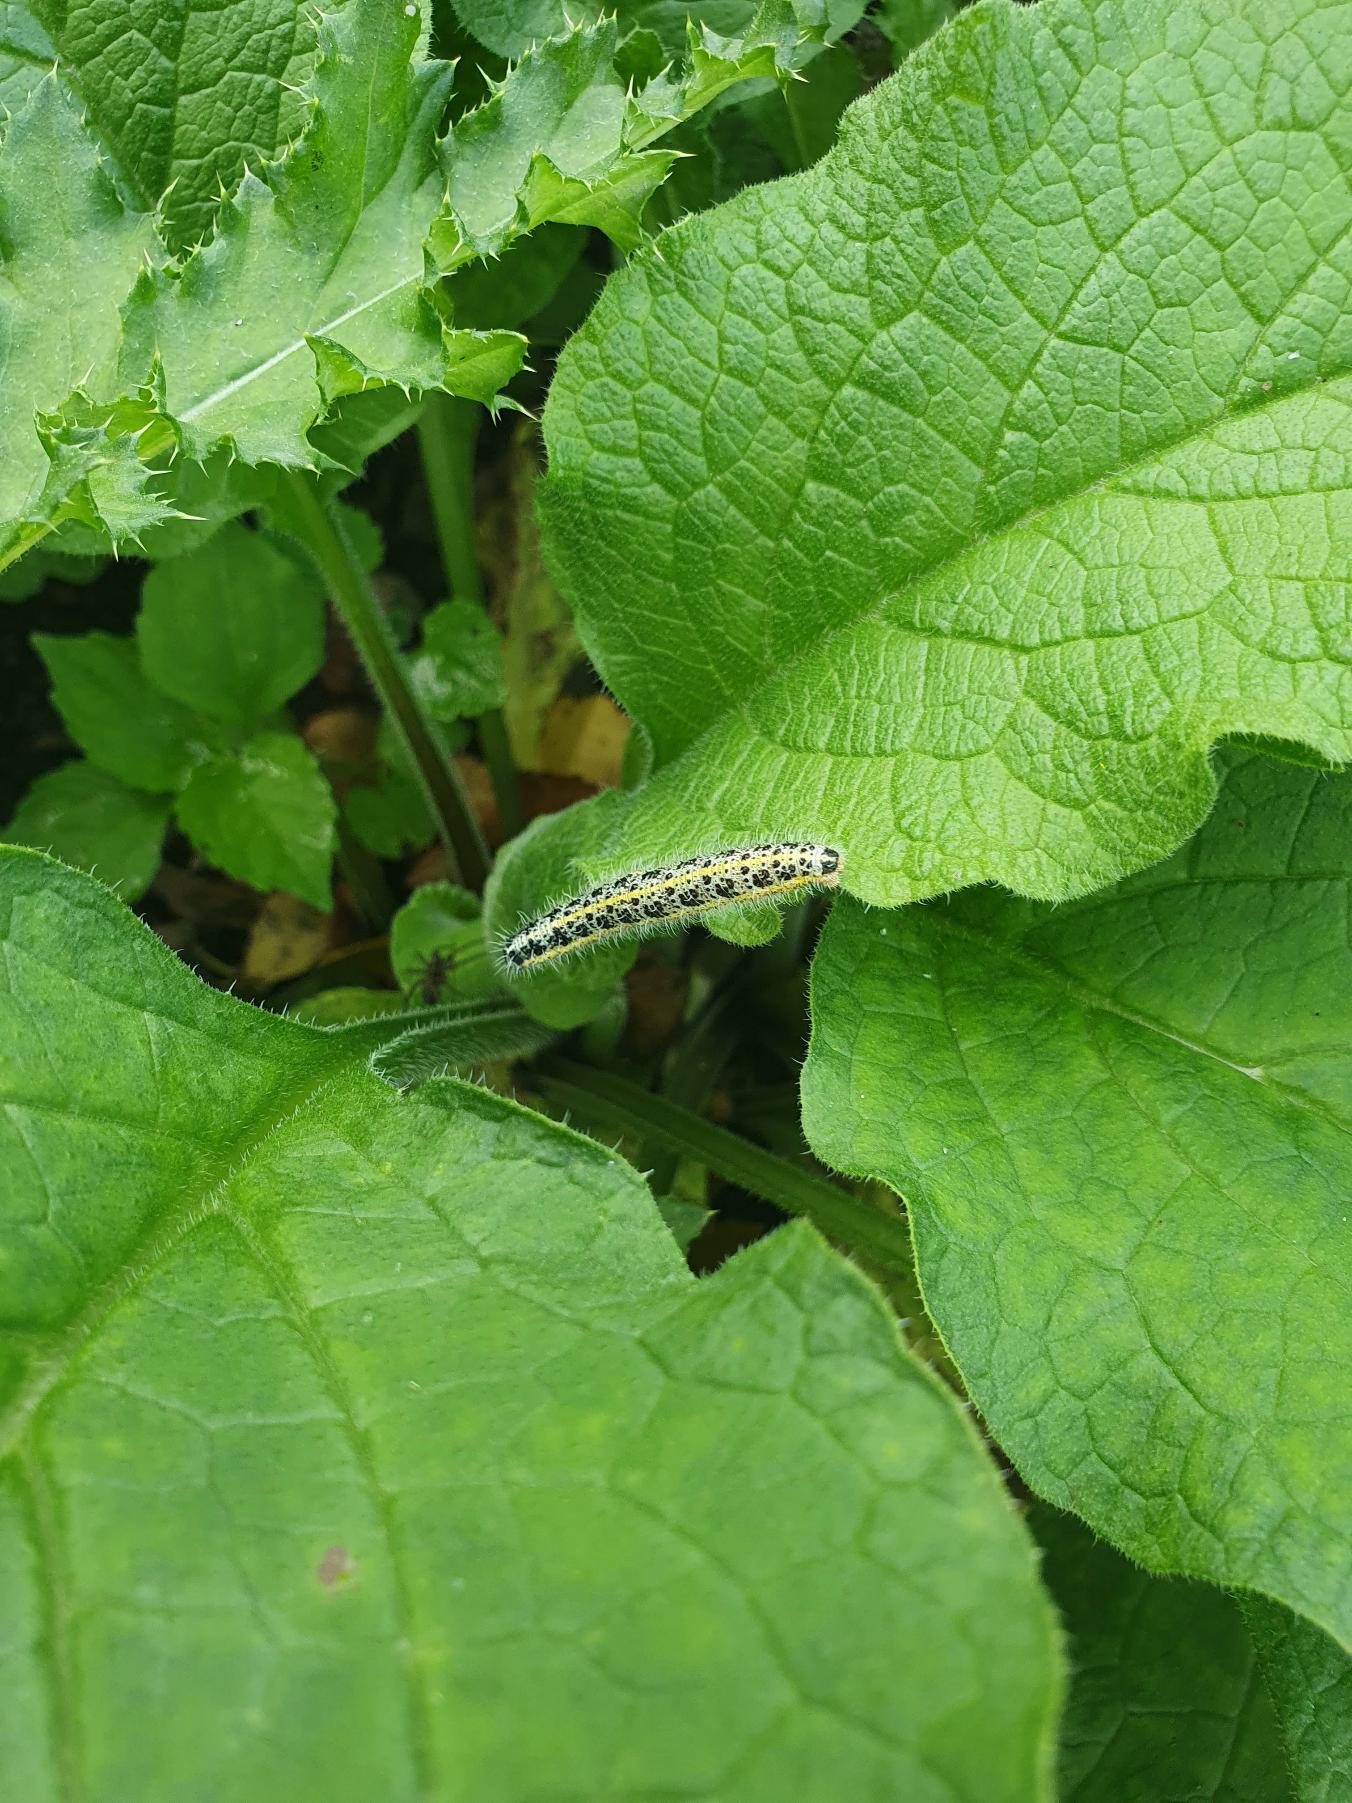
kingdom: Animalia
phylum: Arthropoda
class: Insecta
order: Lepidoptera
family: Pieridae
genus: Pieris
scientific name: Pieris brassicae
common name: Stor kålsommerfugl
